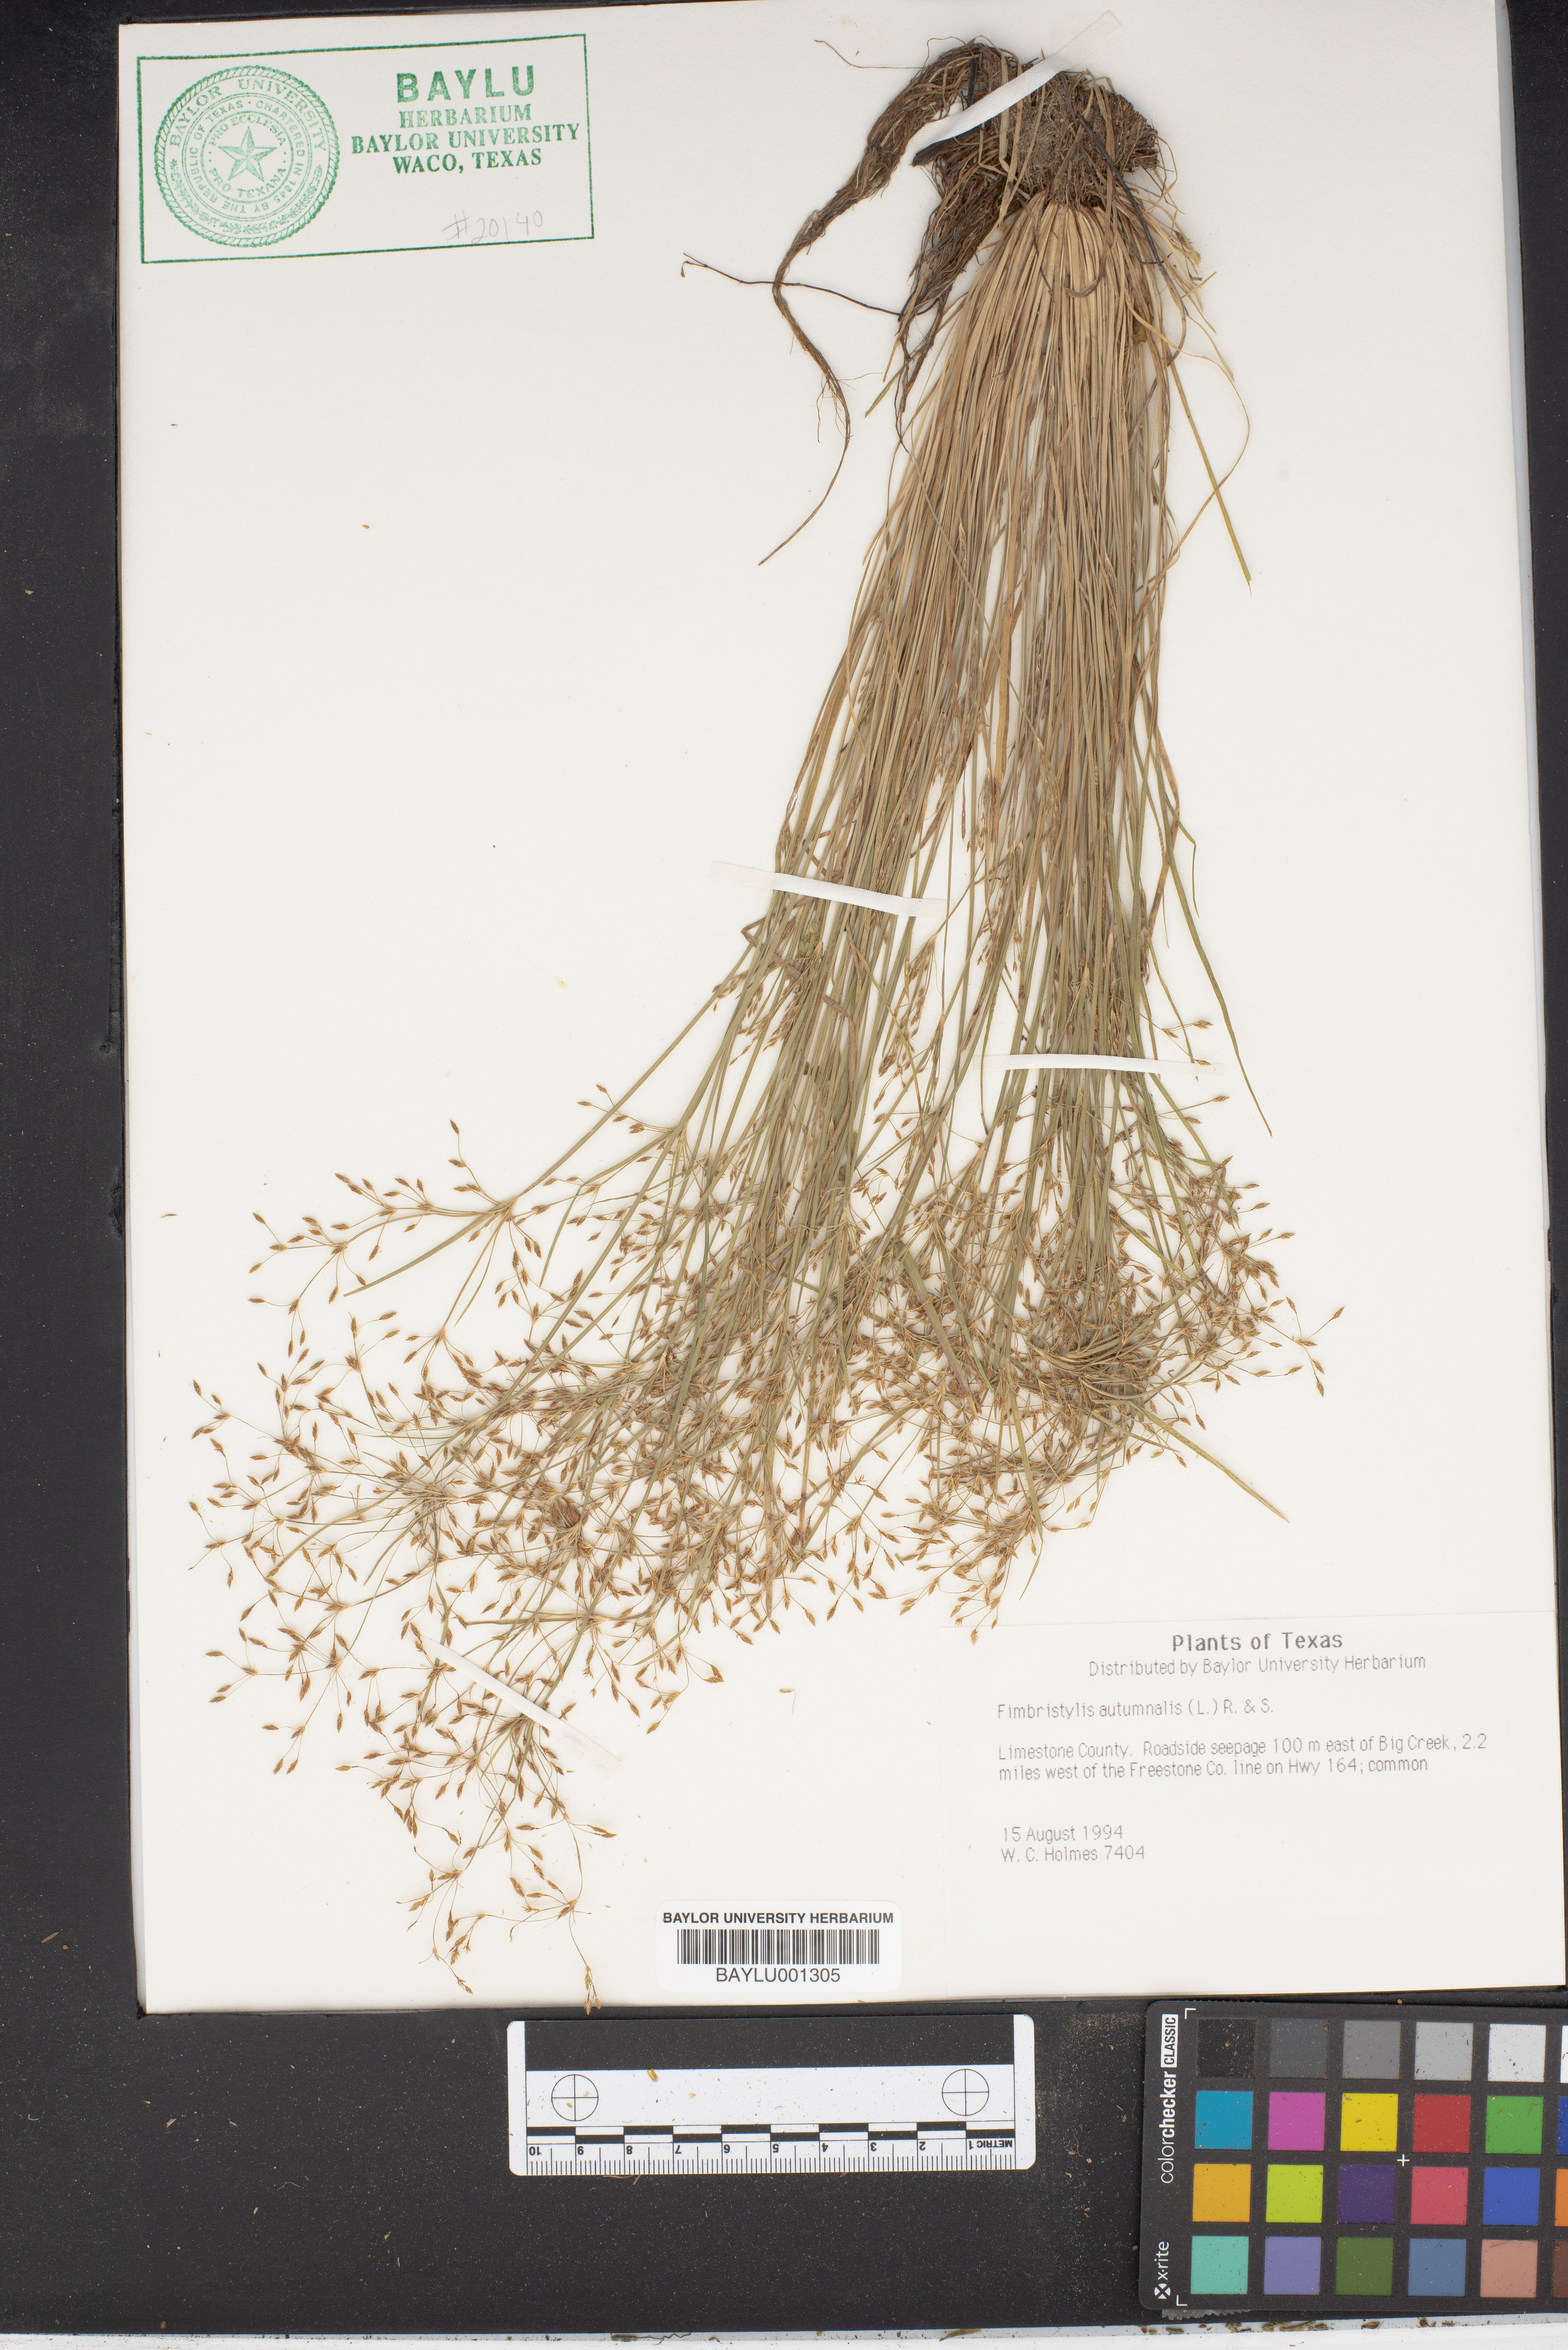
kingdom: Plantae
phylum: Tracheophyta
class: Liliopsida
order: Poales
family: Cyperaceae
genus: Fimbristylis
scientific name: Fimbristylis autumnalis
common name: Slender fimbristylis
